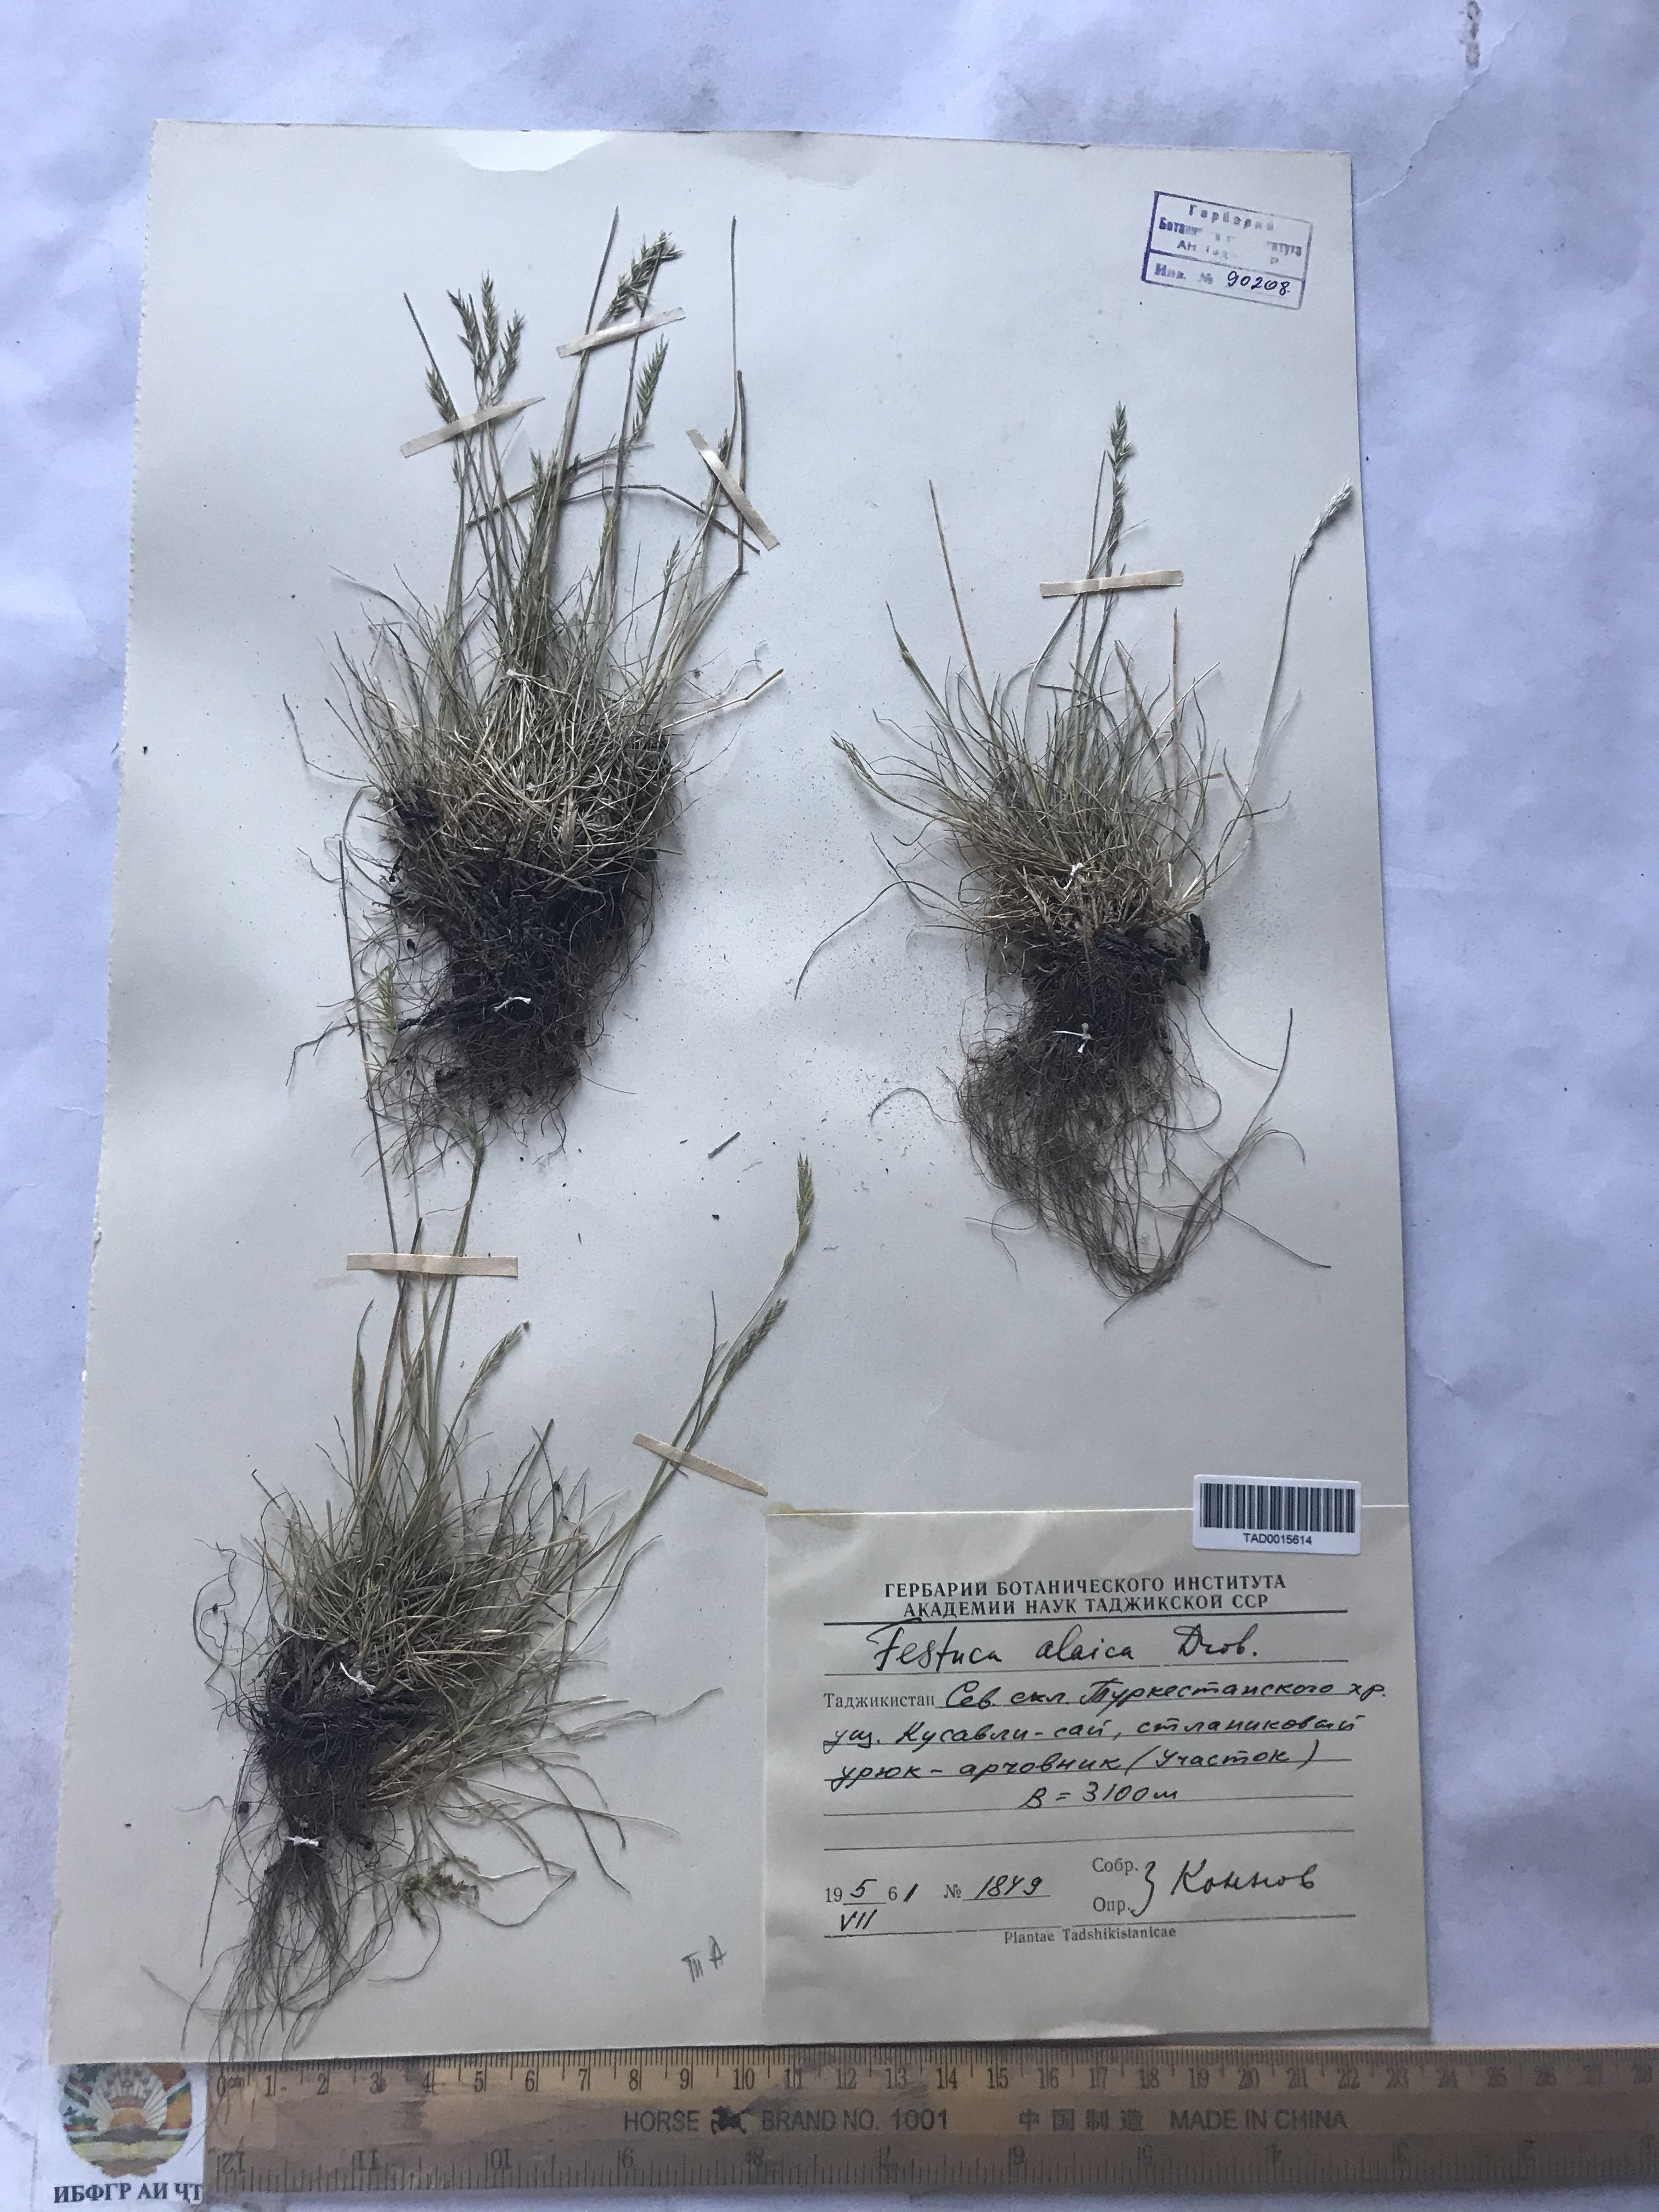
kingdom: Plantae
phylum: Tracheophyta
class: Liliopsida
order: Poales
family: Poaceae
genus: Festuca
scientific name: Festuca alaica
